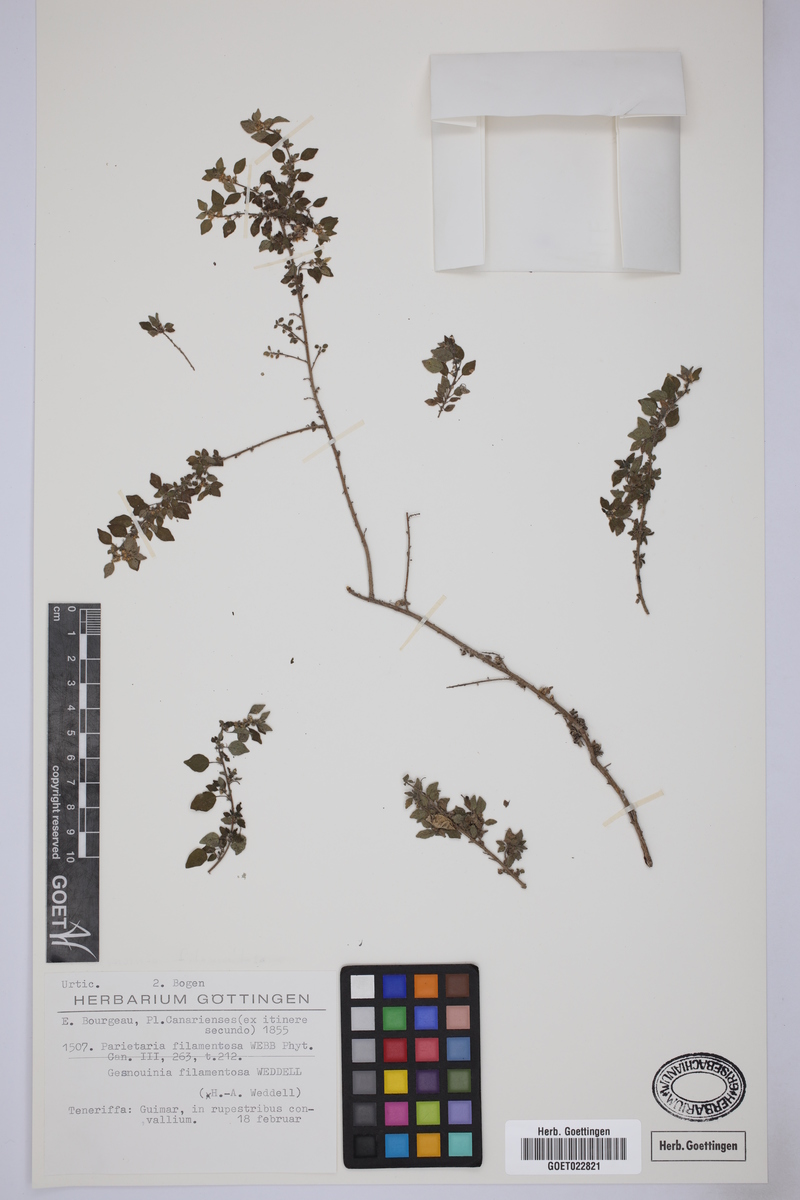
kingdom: Plantae
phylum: Tracheophyta
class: Magnoliopsida
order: Rosales
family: Urticaceae
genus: Parietaria
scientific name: Parietaria filamentosa
